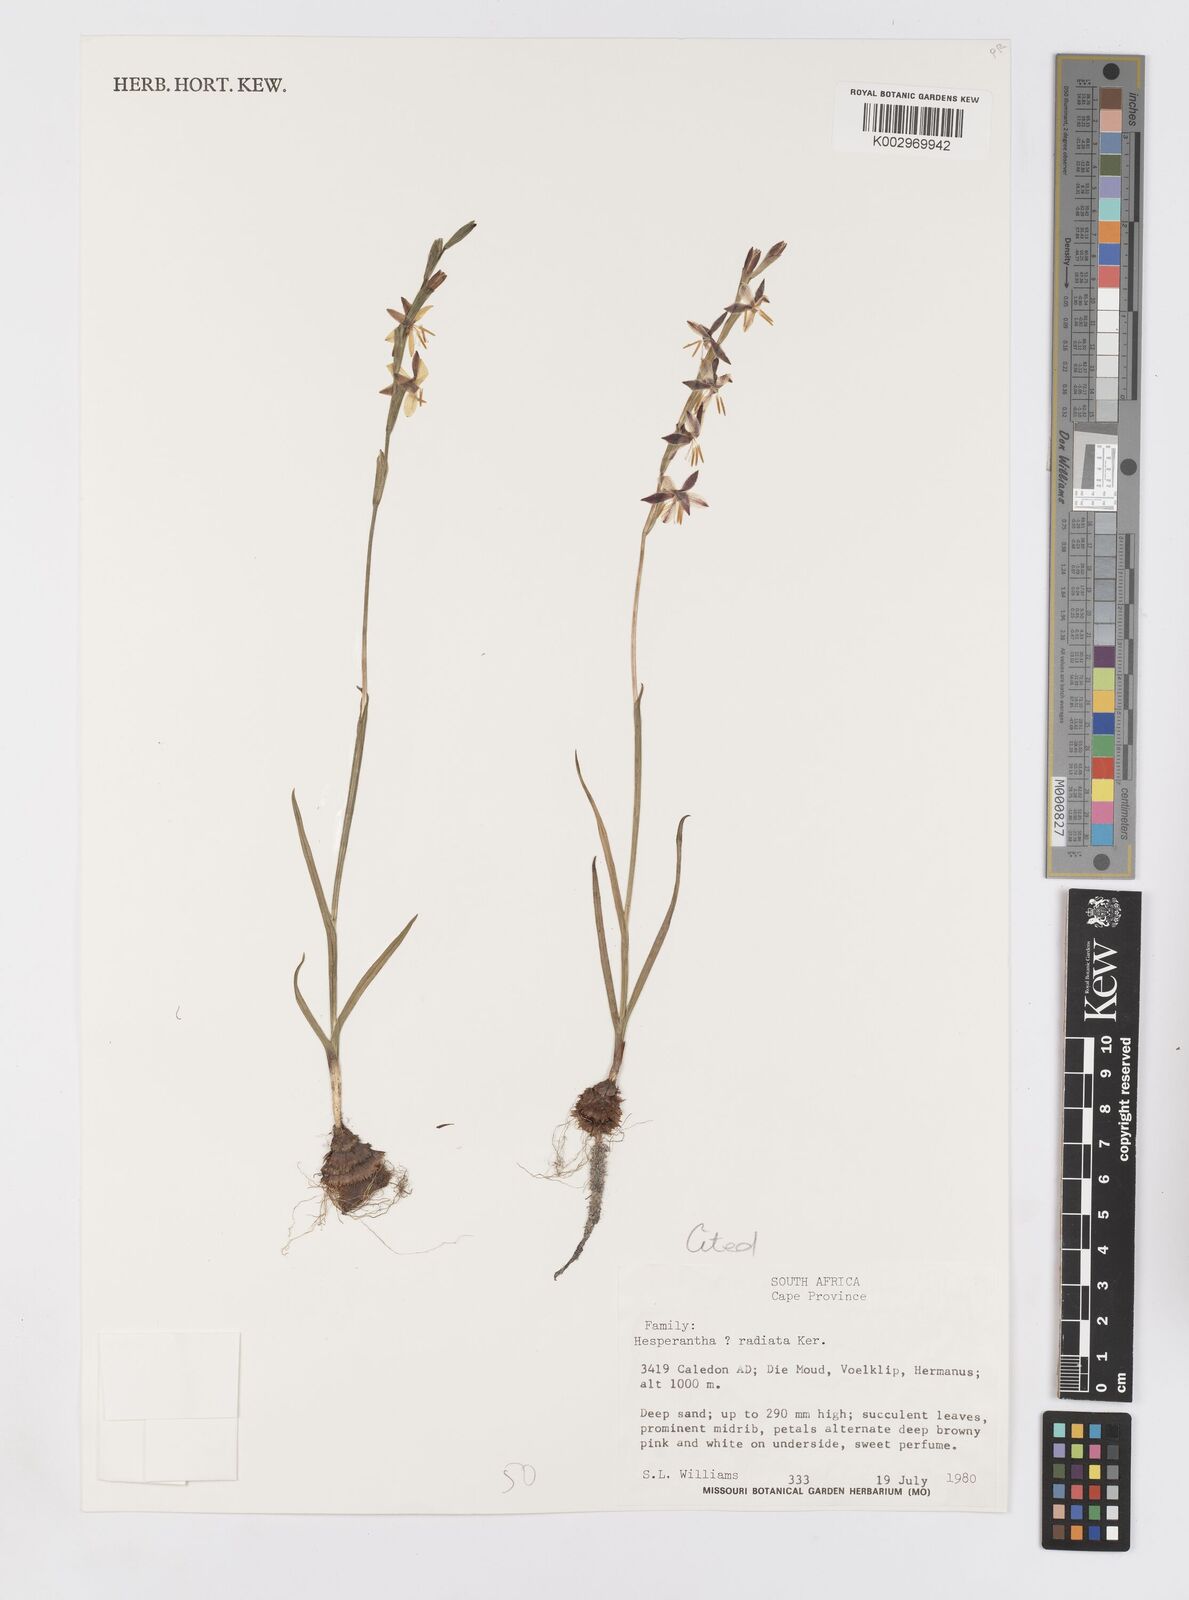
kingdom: Plantae
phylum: Tracheophyta
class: Liliopsida
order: Asparagales
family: Iridaceae
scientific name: Iridaceae
